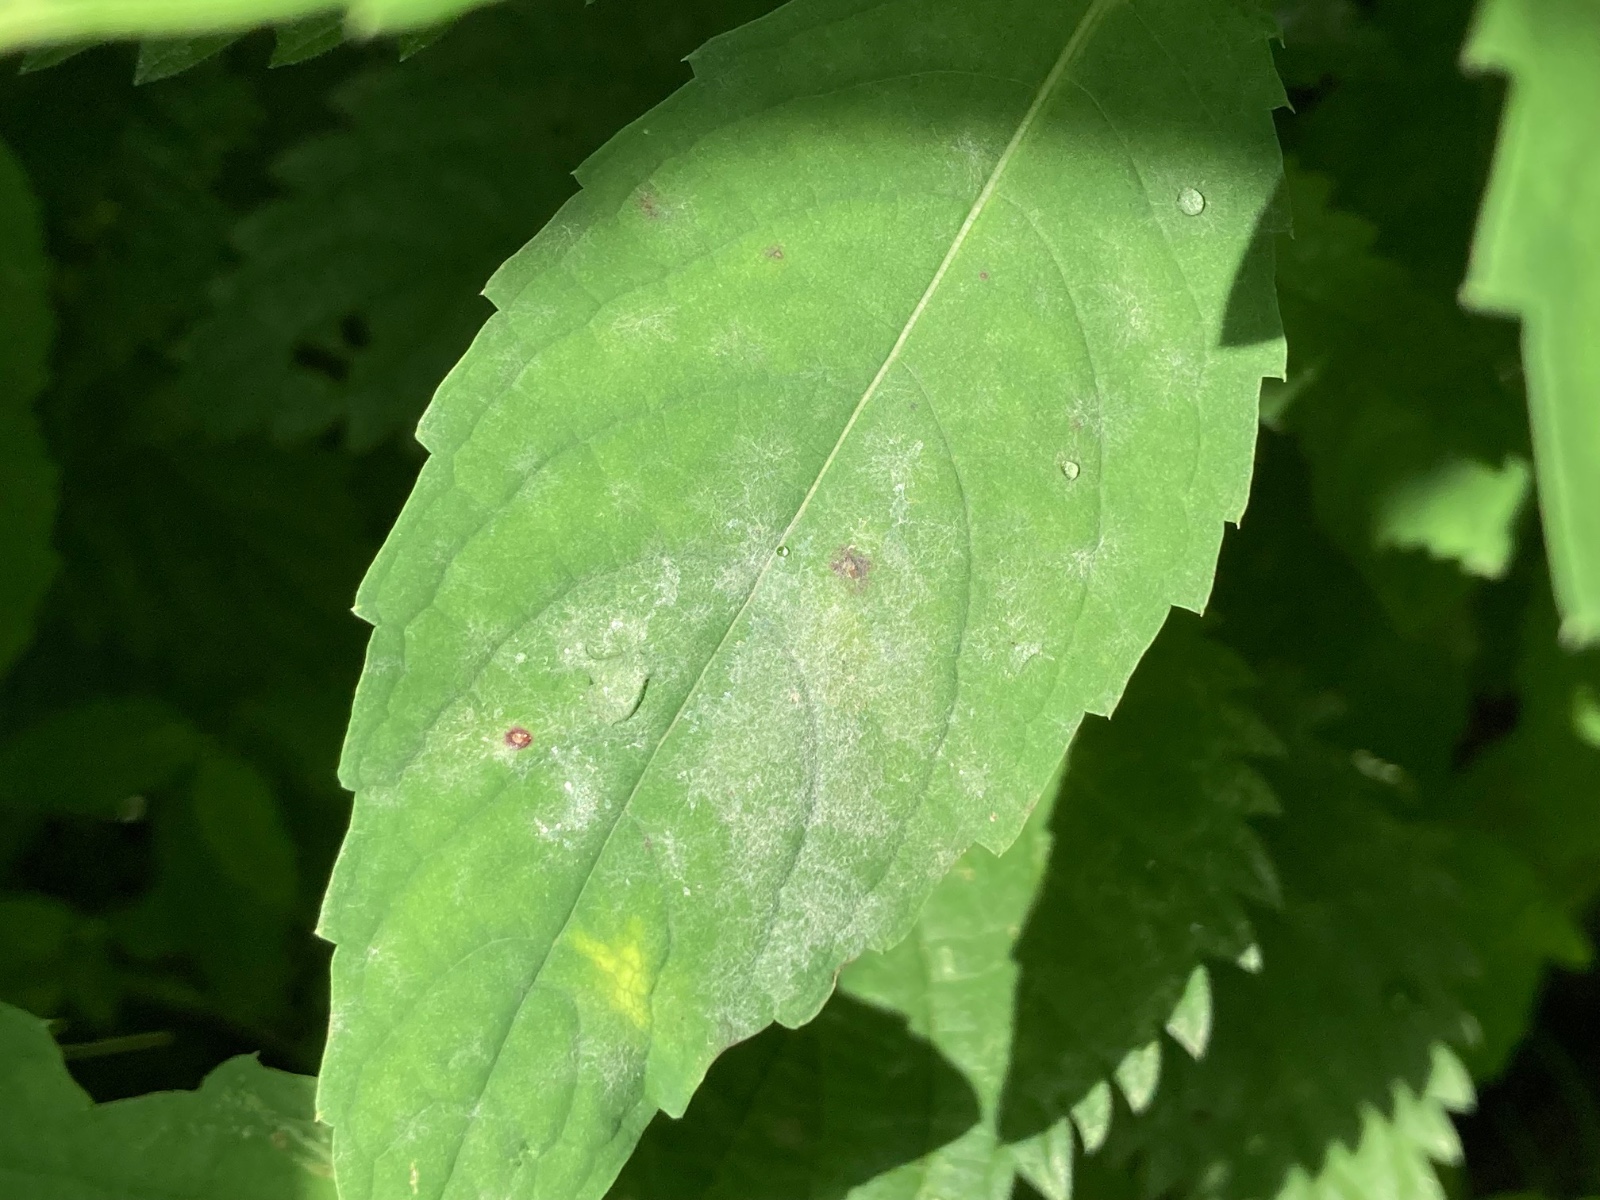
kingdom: Fungi
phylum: Ascomycota
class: Leotiomycetes
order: Helotiales
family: Erysiphaceae
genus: Podosphaera
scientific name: Podosphaera balsaminae
